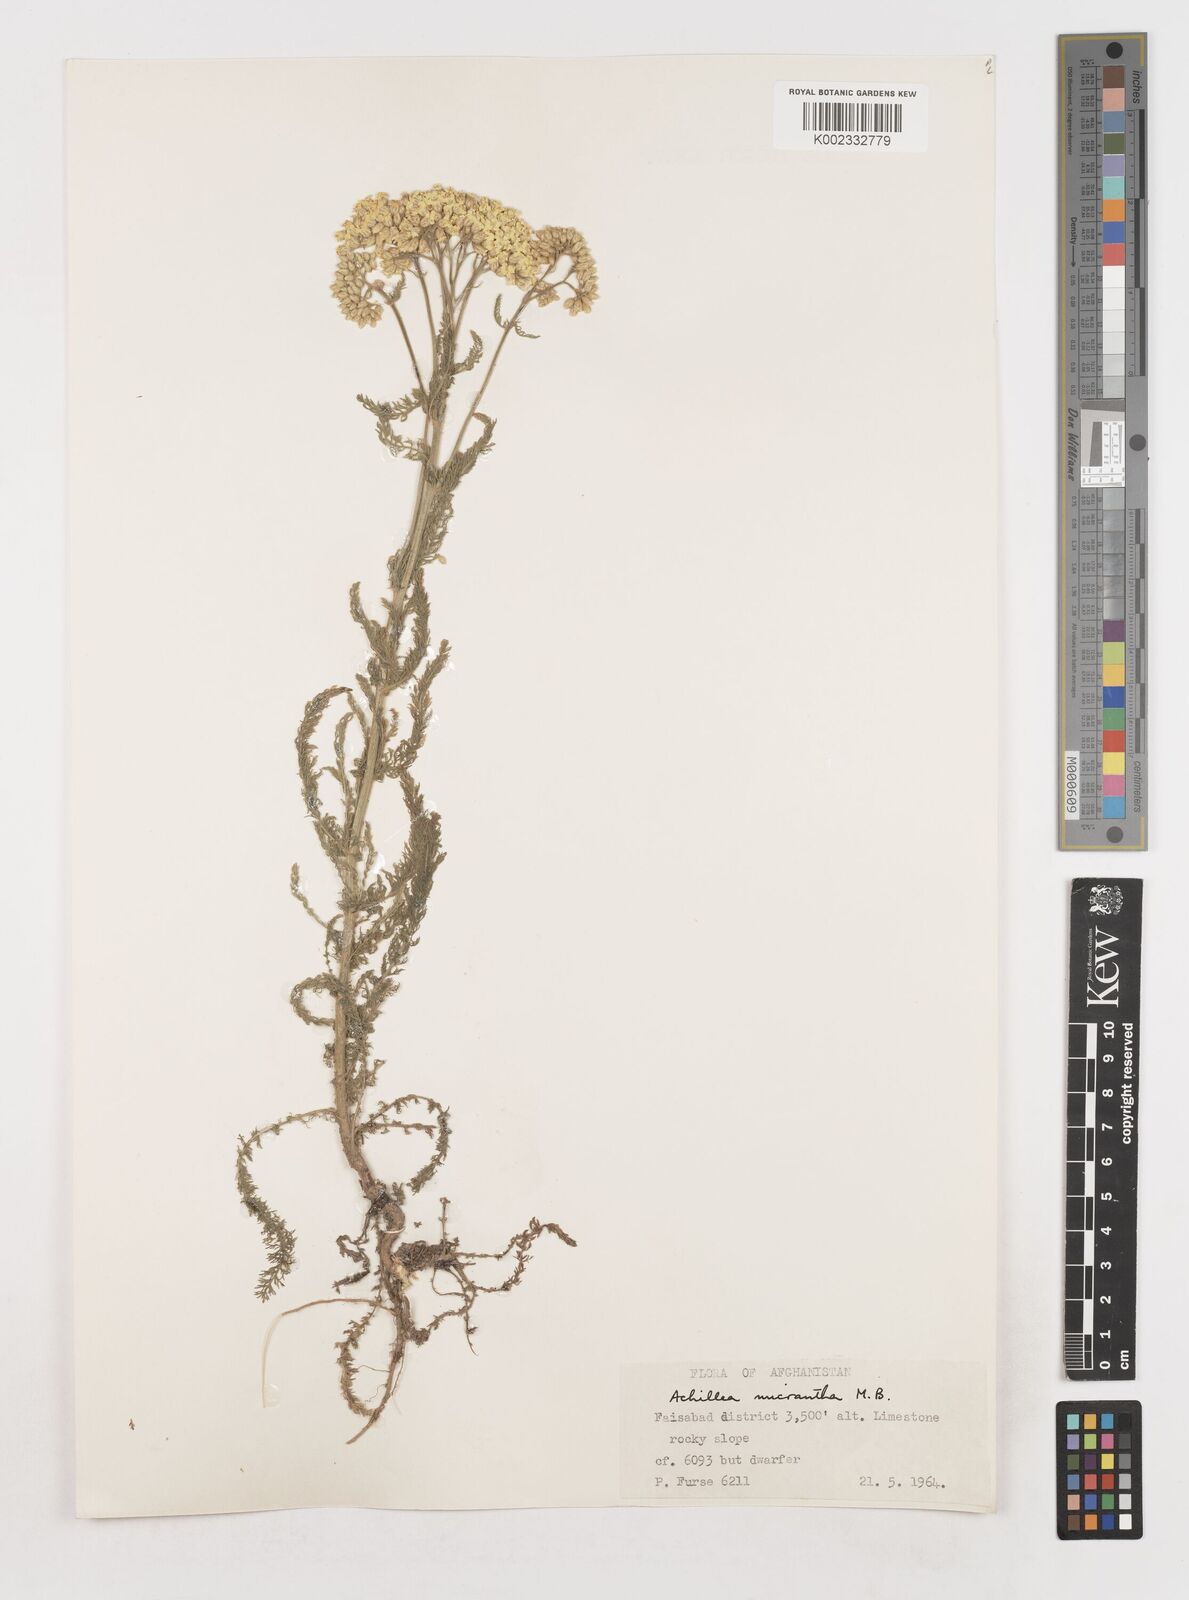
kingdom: Plantae
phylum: Tracheophyta
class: Magnoliopsida
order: Asterales
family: Asteraceae
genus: Achillea
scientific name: Achillea arabica
